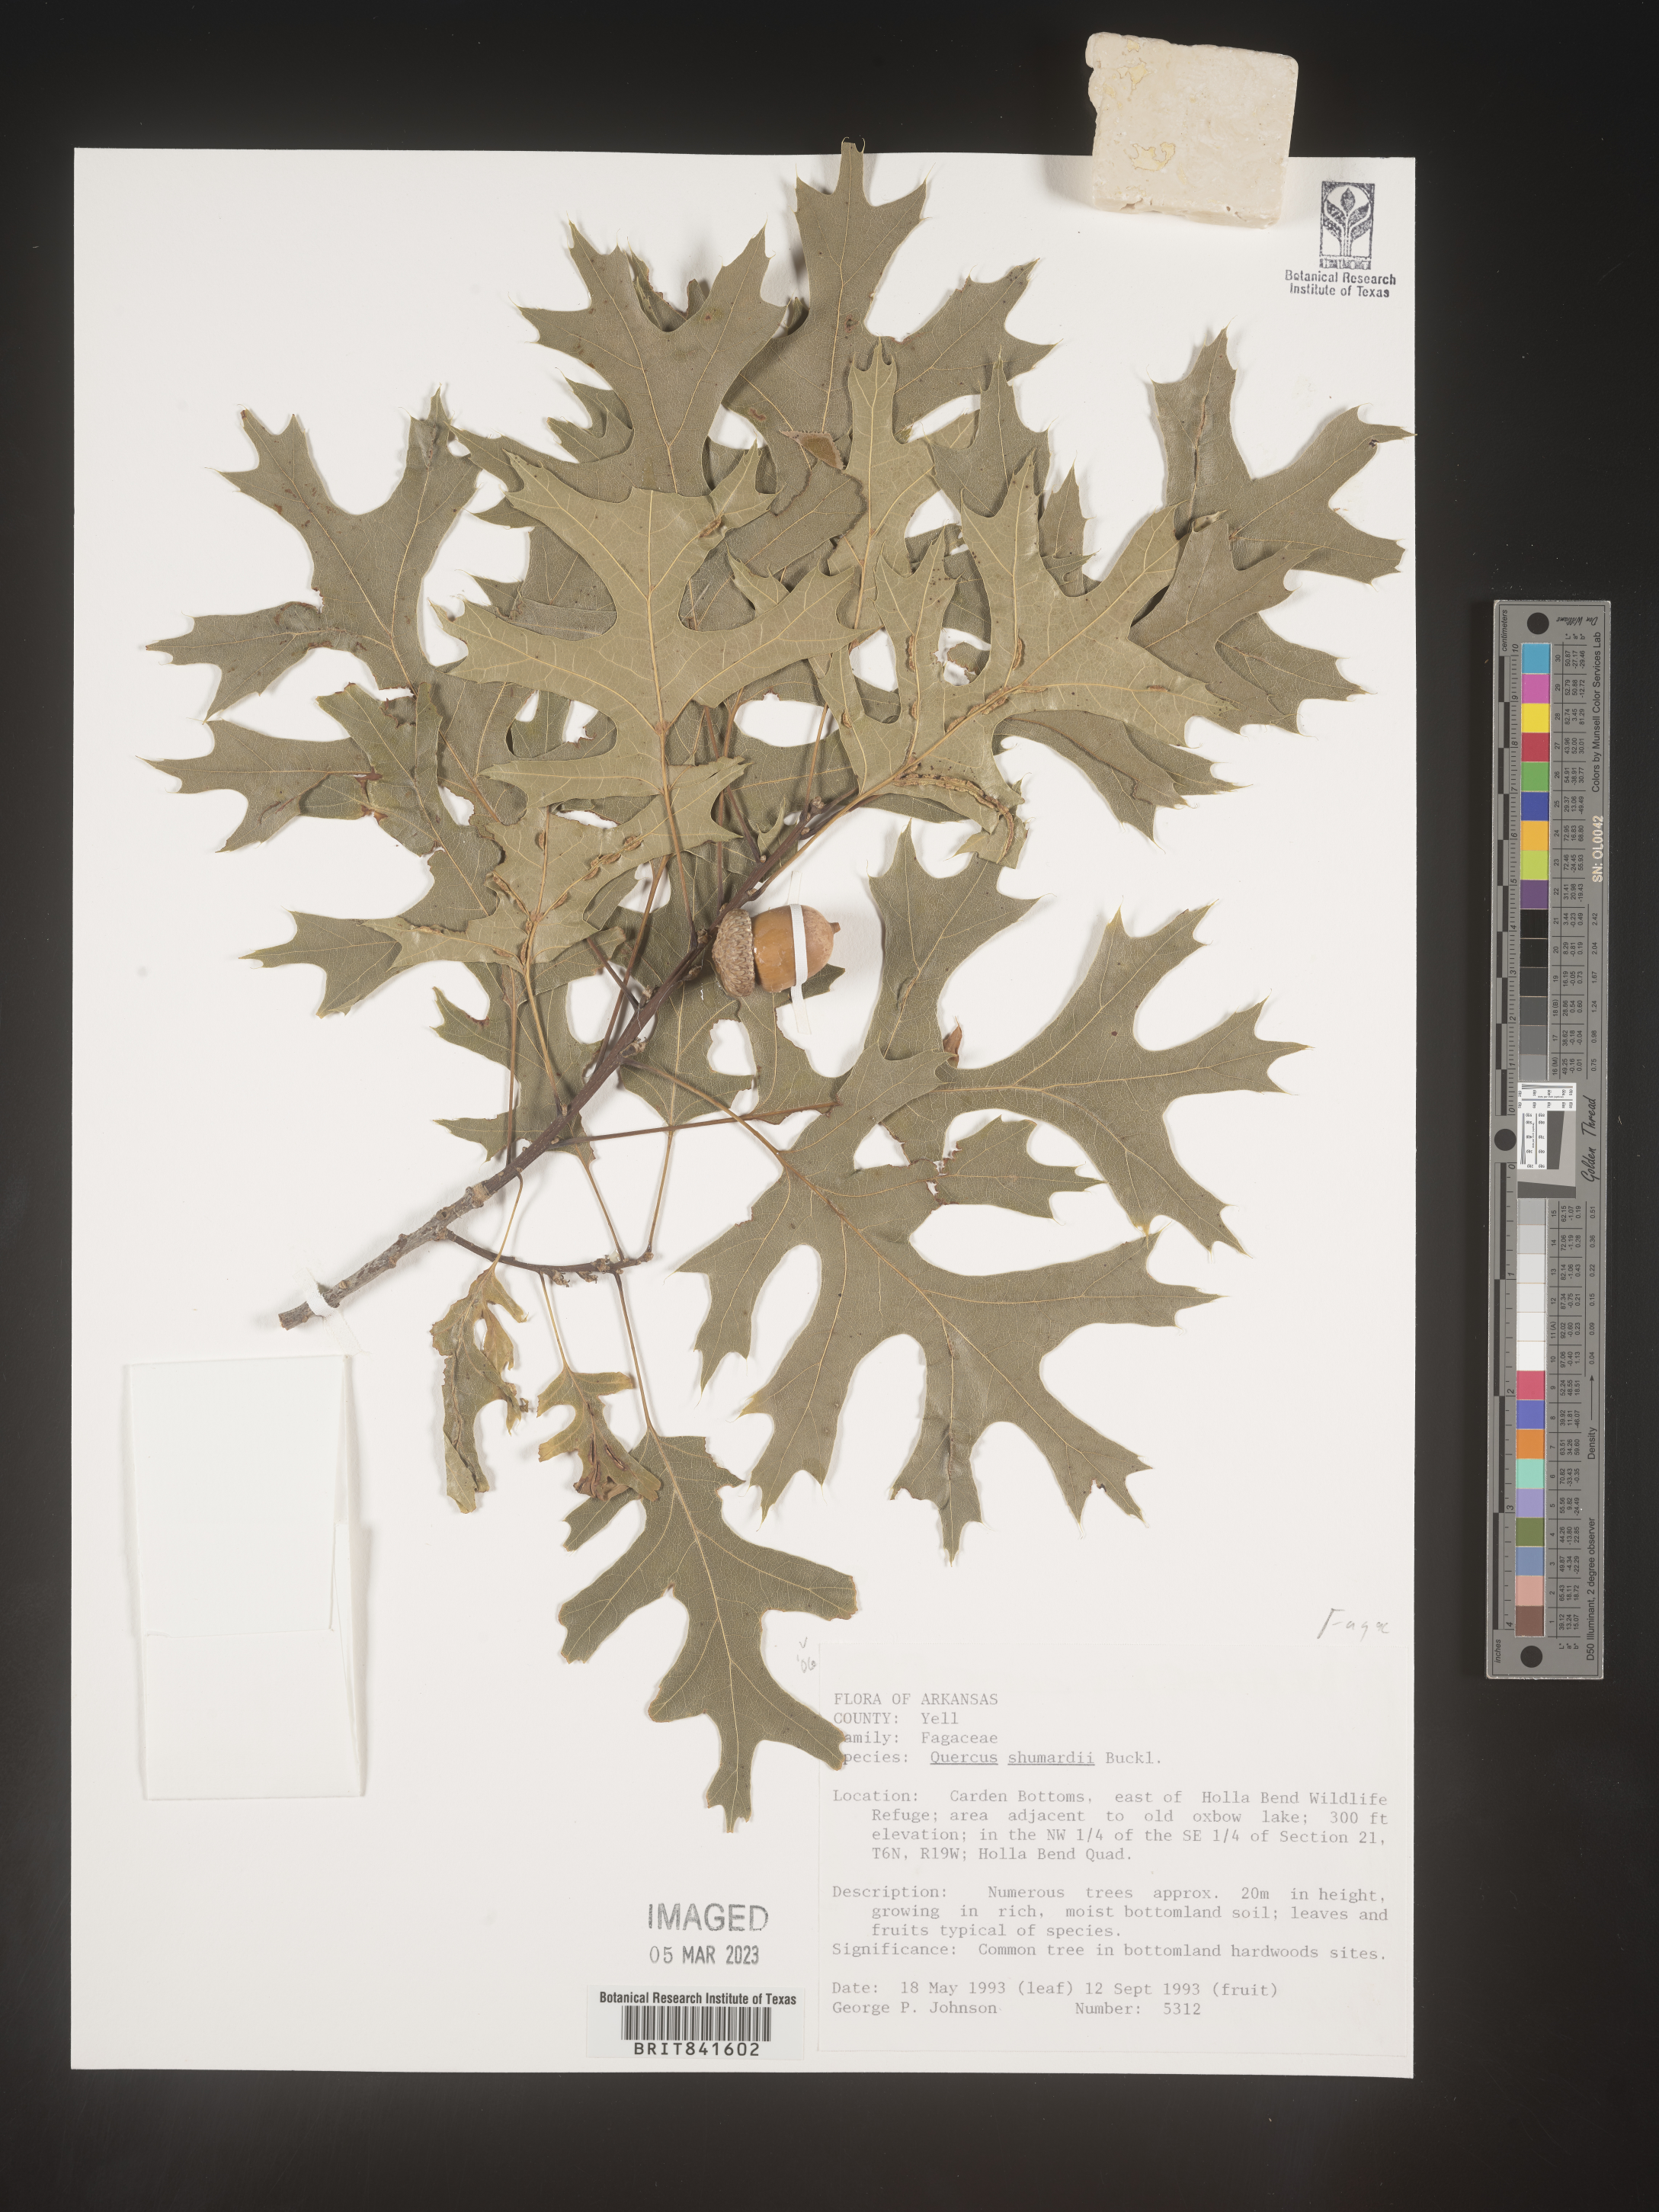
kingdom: Plantae
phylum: Tracheophyta
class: Magnoliopsida
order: Fagales
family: Fagaceae
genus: Quercus
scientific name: Quercus shumardii
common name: Shumard oak
